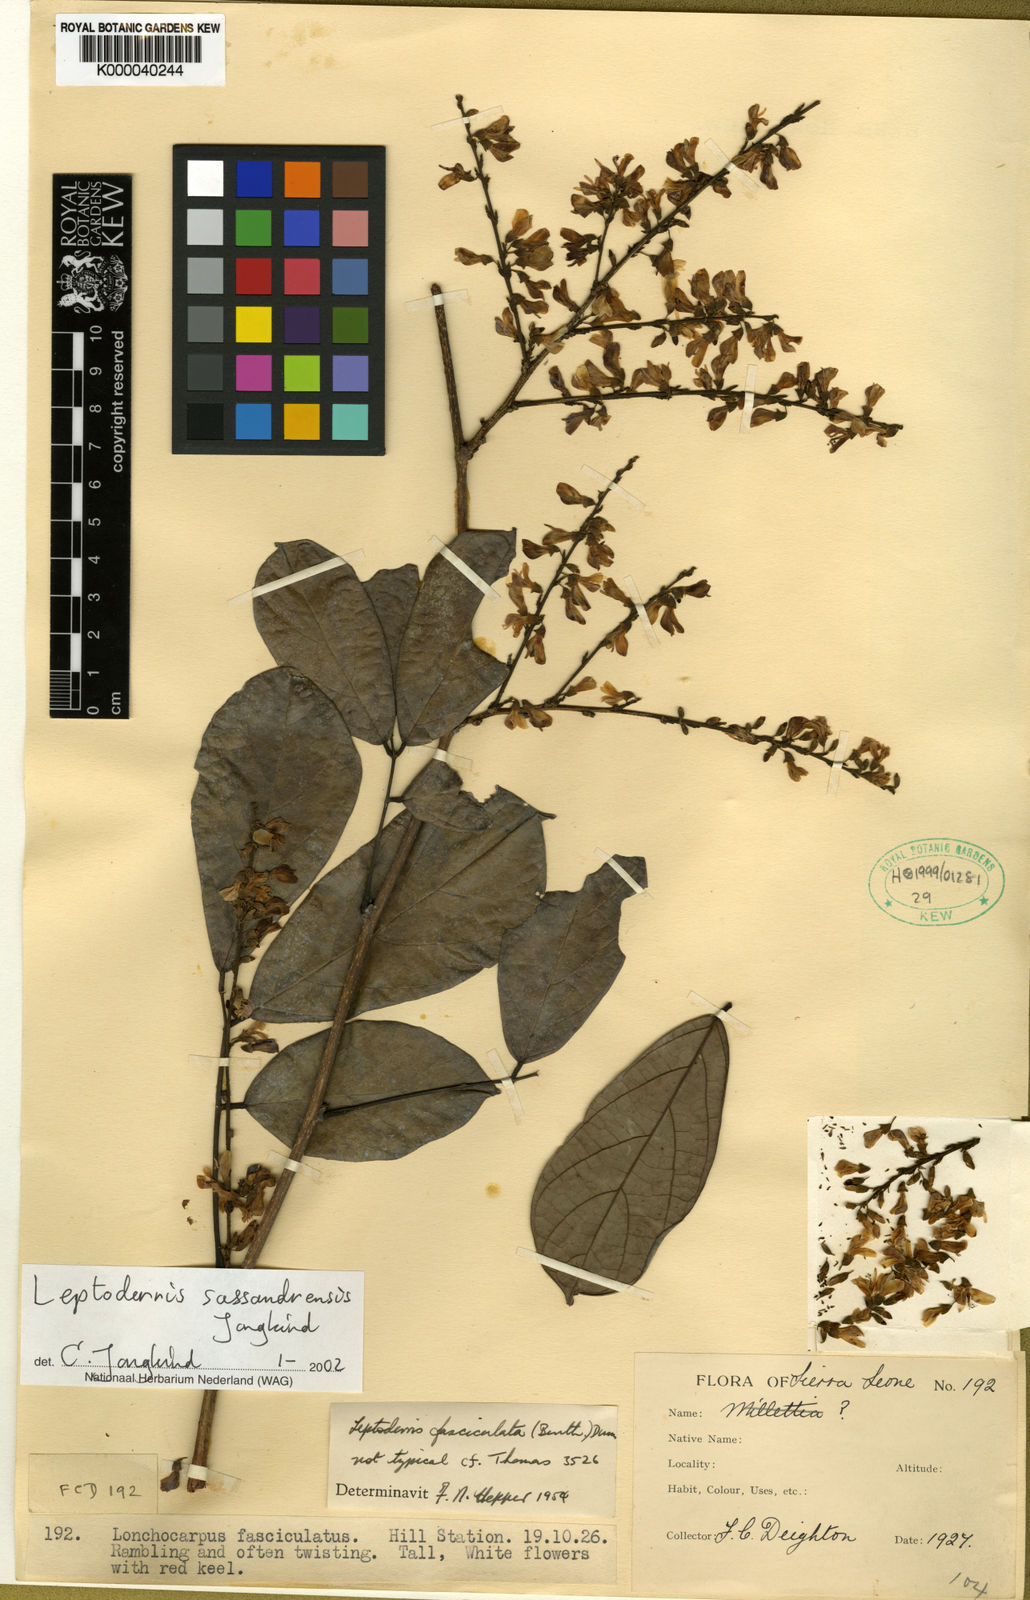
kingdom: Plantae
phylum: Tracheophyta
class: Magnoliopsida
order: Fabales
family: Fabaceae
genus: Leptoderris
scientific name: Leptoderris fasciculata
